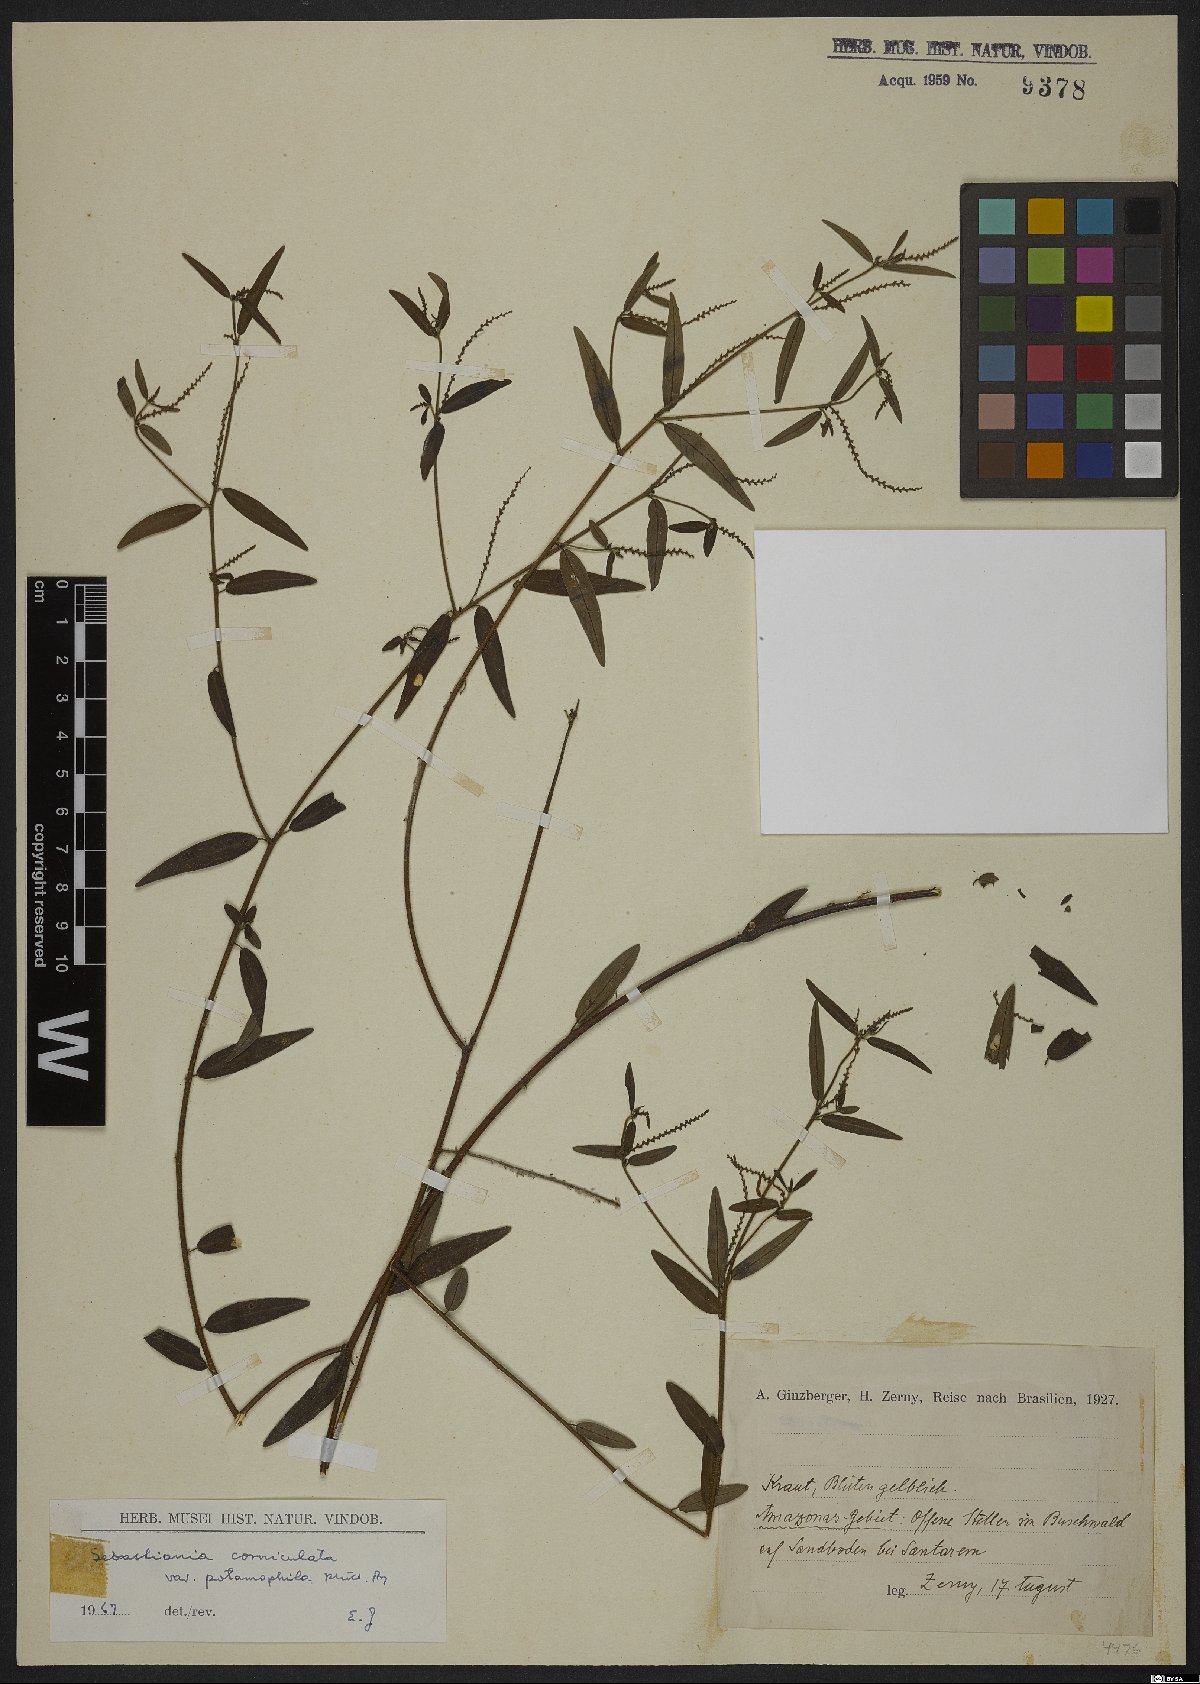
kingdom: Plantae
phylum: Tracheophyta
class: Magnoliopsida
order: Malpighiales
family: Euphorbiaceae
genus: Microstachys
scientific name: Microstachys corniculata
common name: Hato tejas
